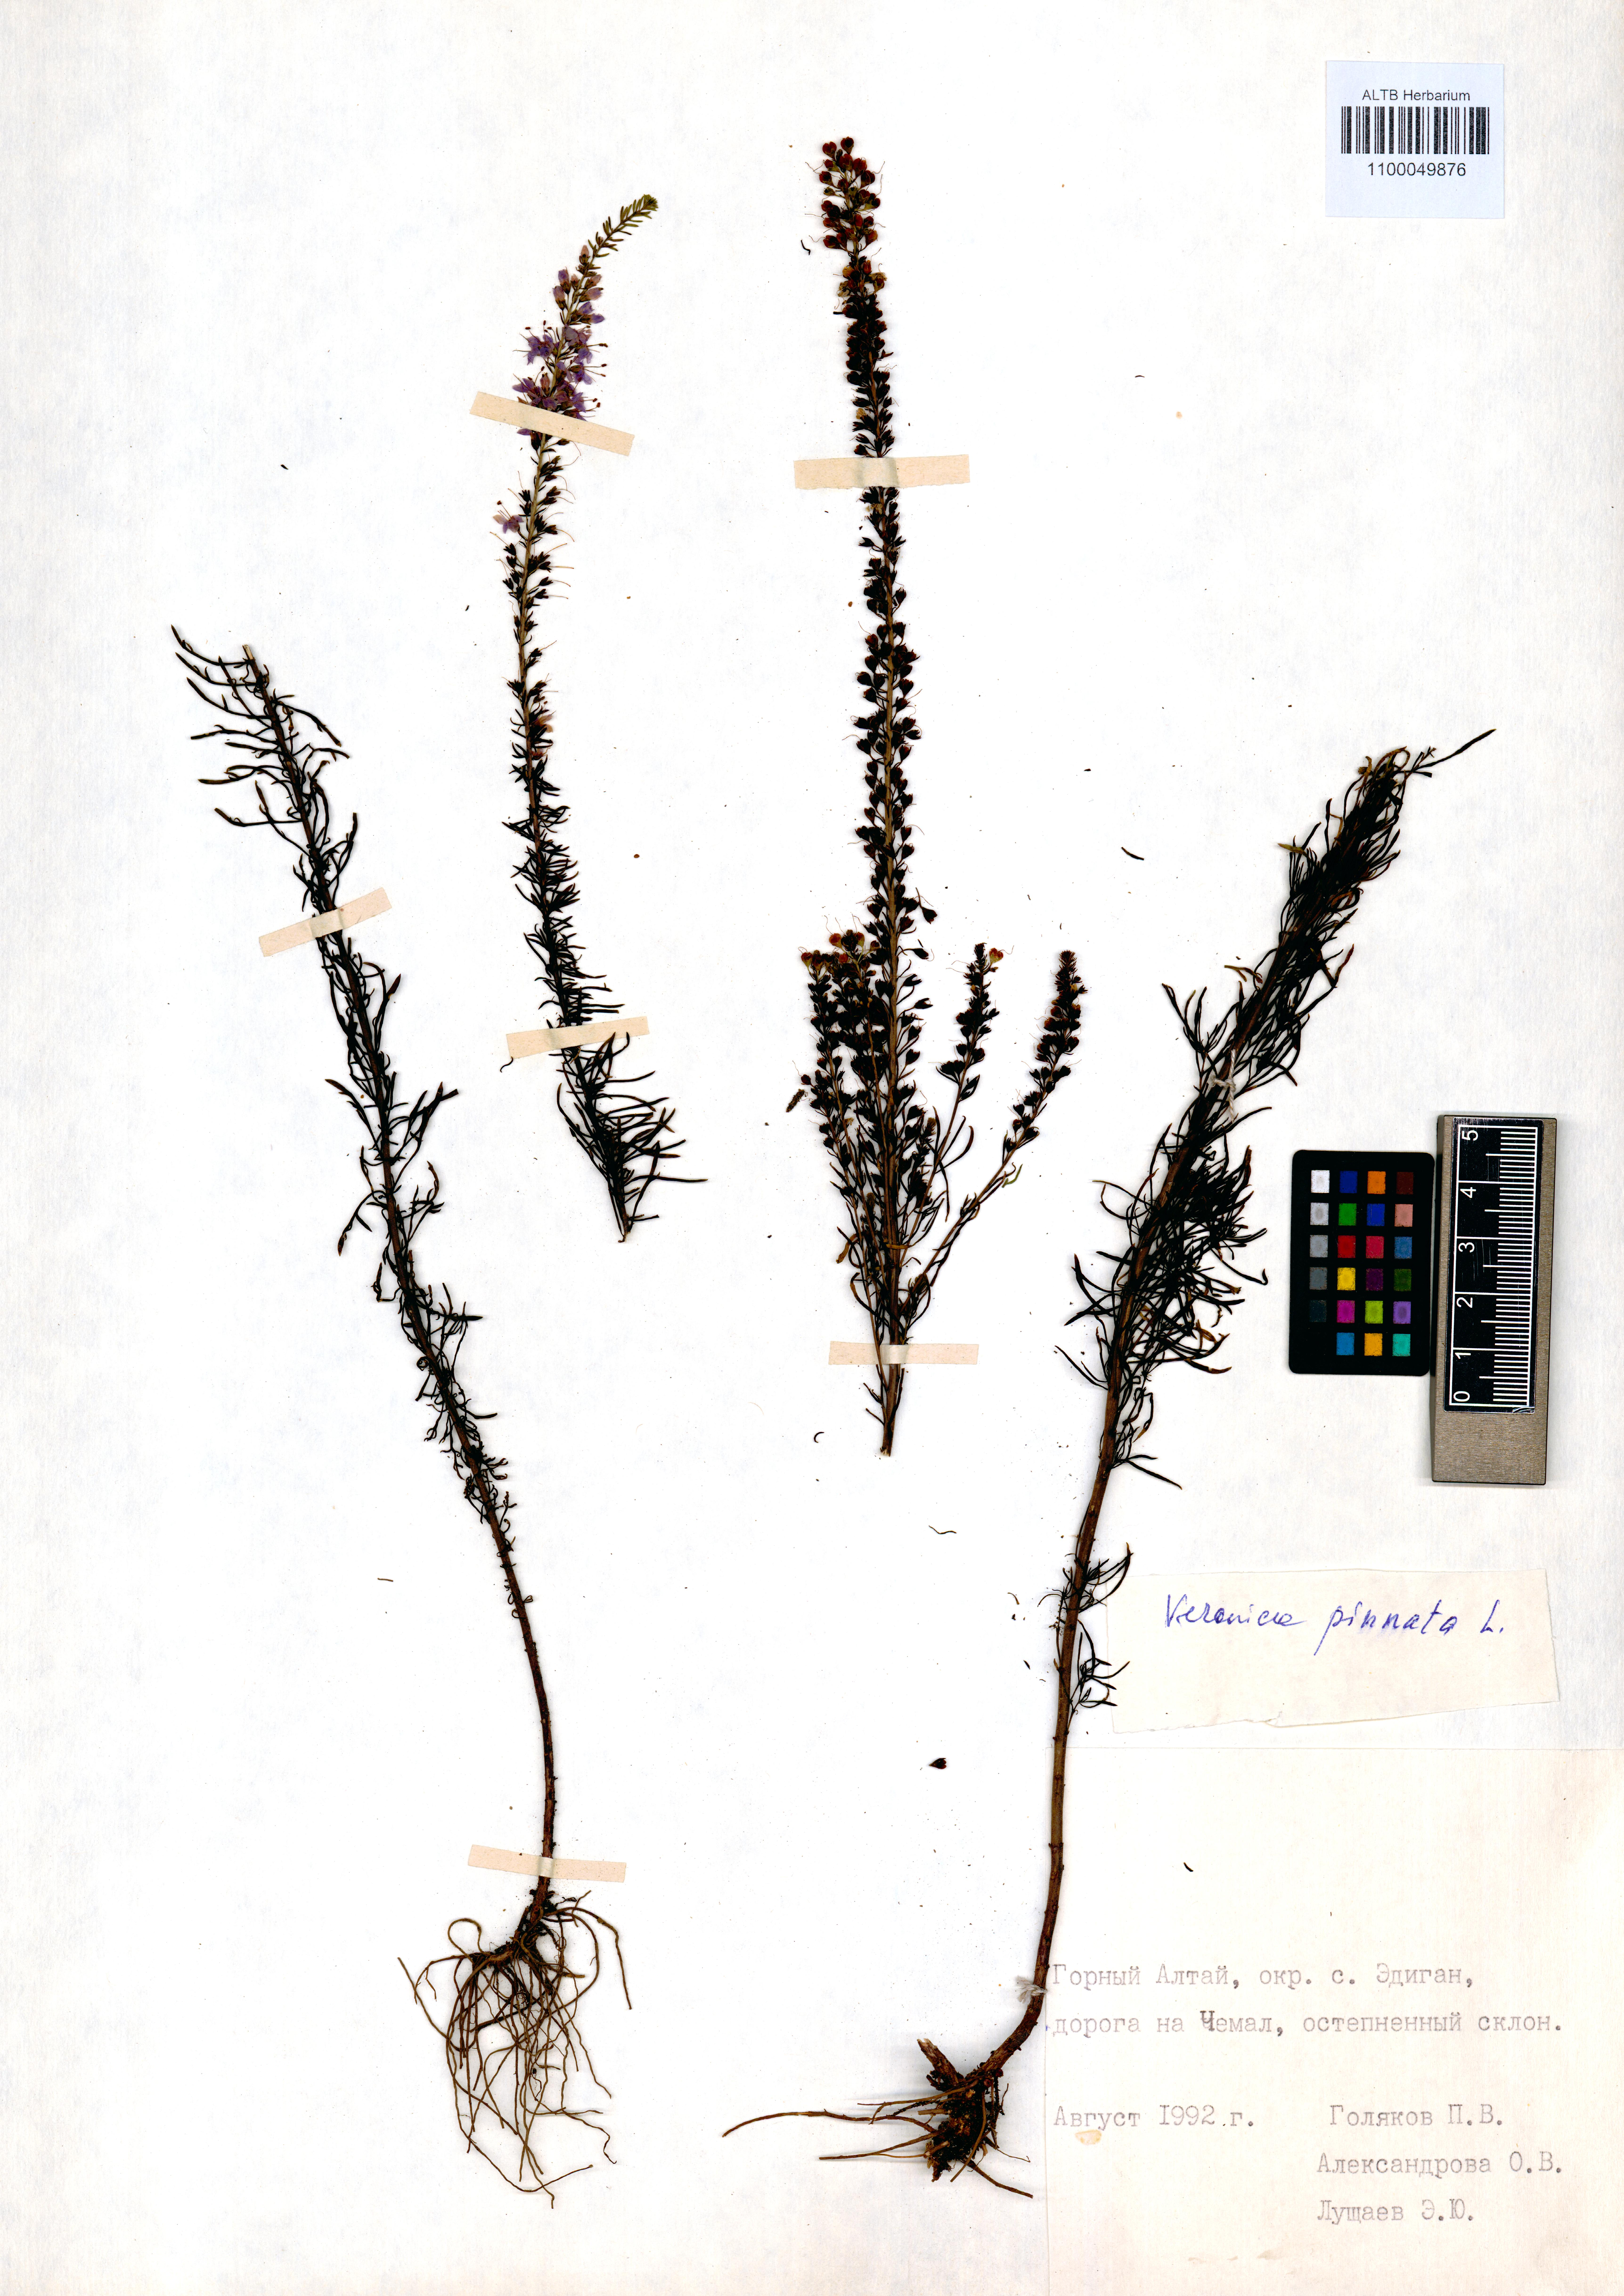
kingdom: Plantae
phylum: Tracheophyta
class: Magnoliopsida
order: Lamiales
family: Plantaginaceae
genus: Veronica
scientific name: Veronica pinnata
